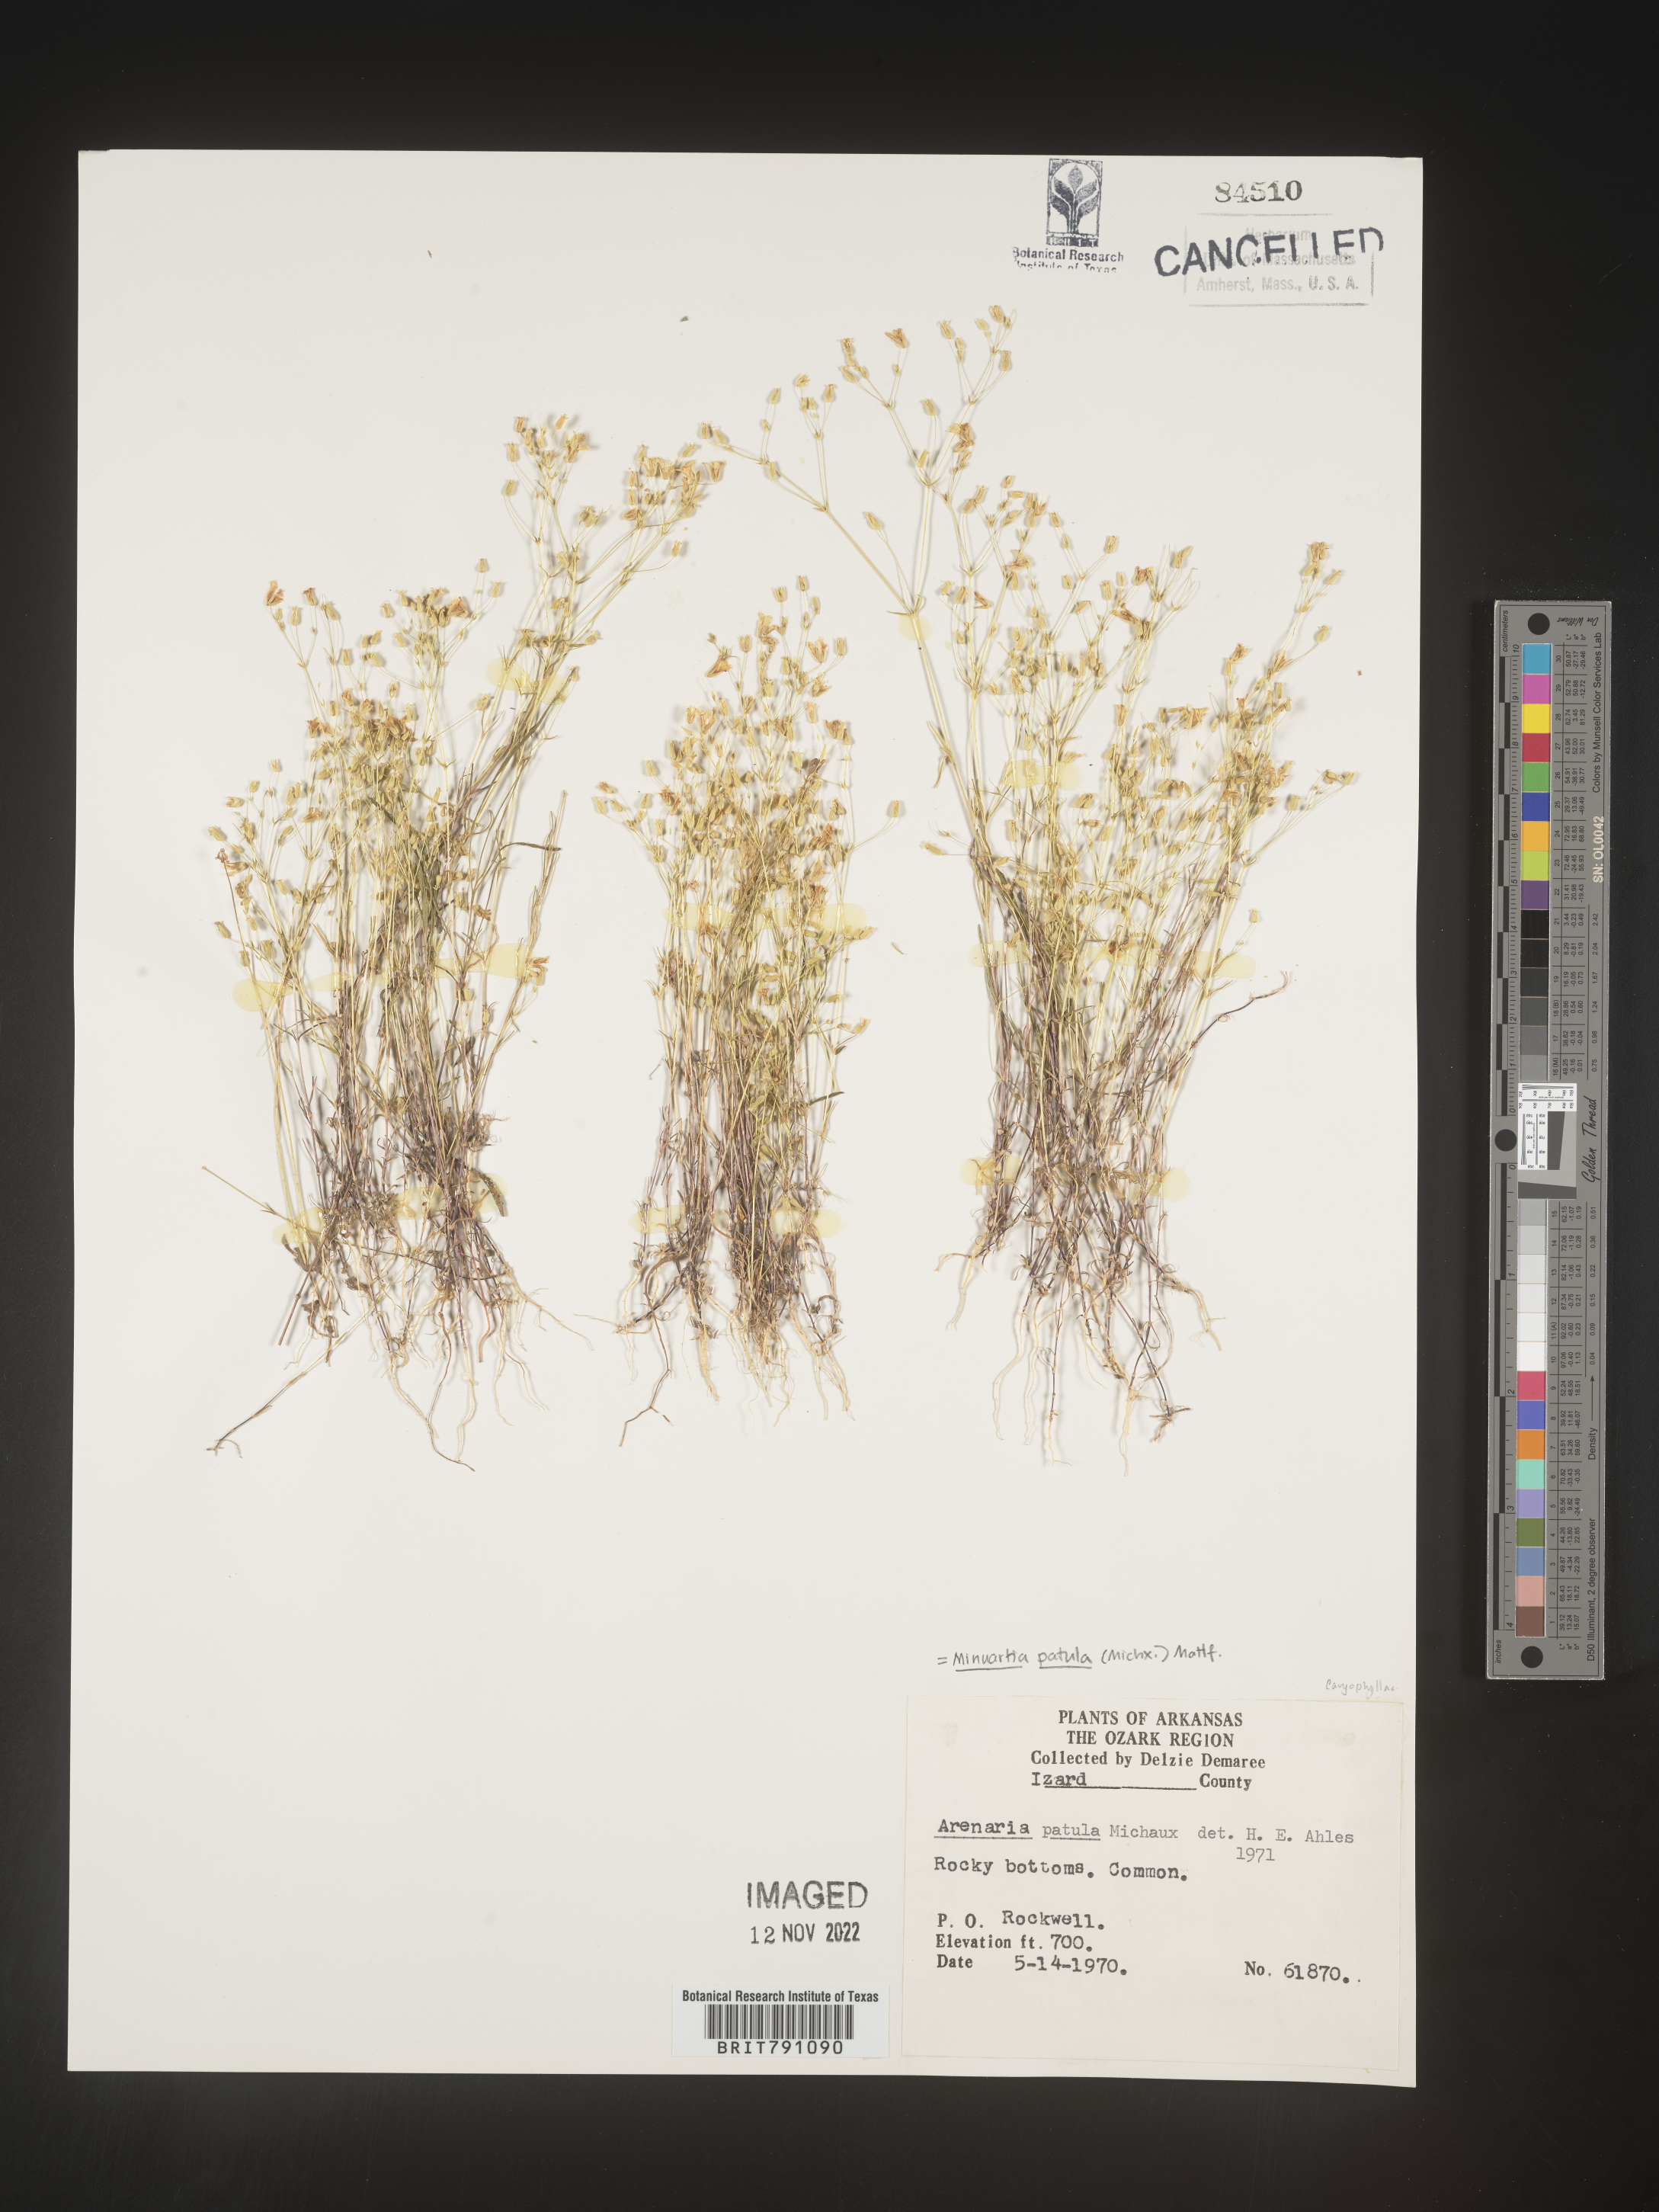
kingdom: Plantae
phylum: Tracheophyta
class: Magnoliopsida
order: Caryophyllales
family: Caryophyllaceae
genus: Mononeuria
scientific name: Mononeuria patula
